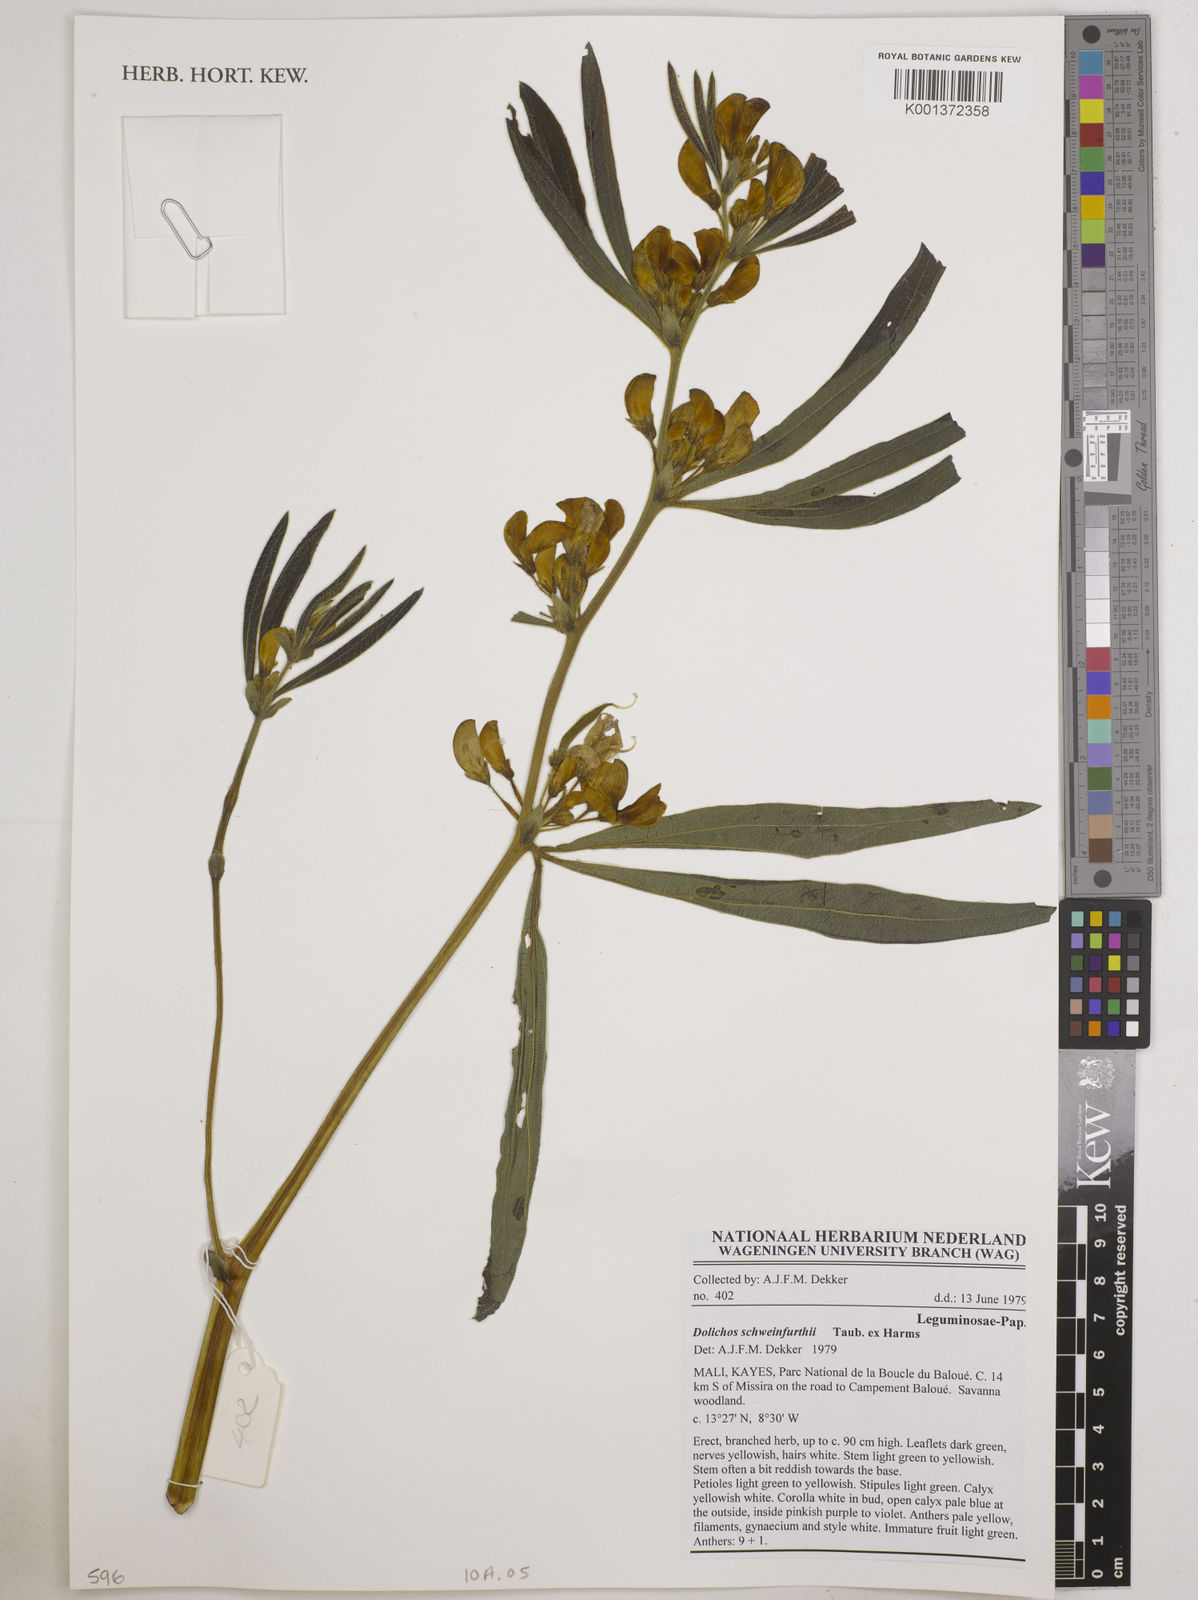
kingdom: Plantae
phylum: Tracheophyta
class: Magnoliopsida
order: Fabales
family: Fabaceae
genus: Dolichos
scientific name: Dolichos
